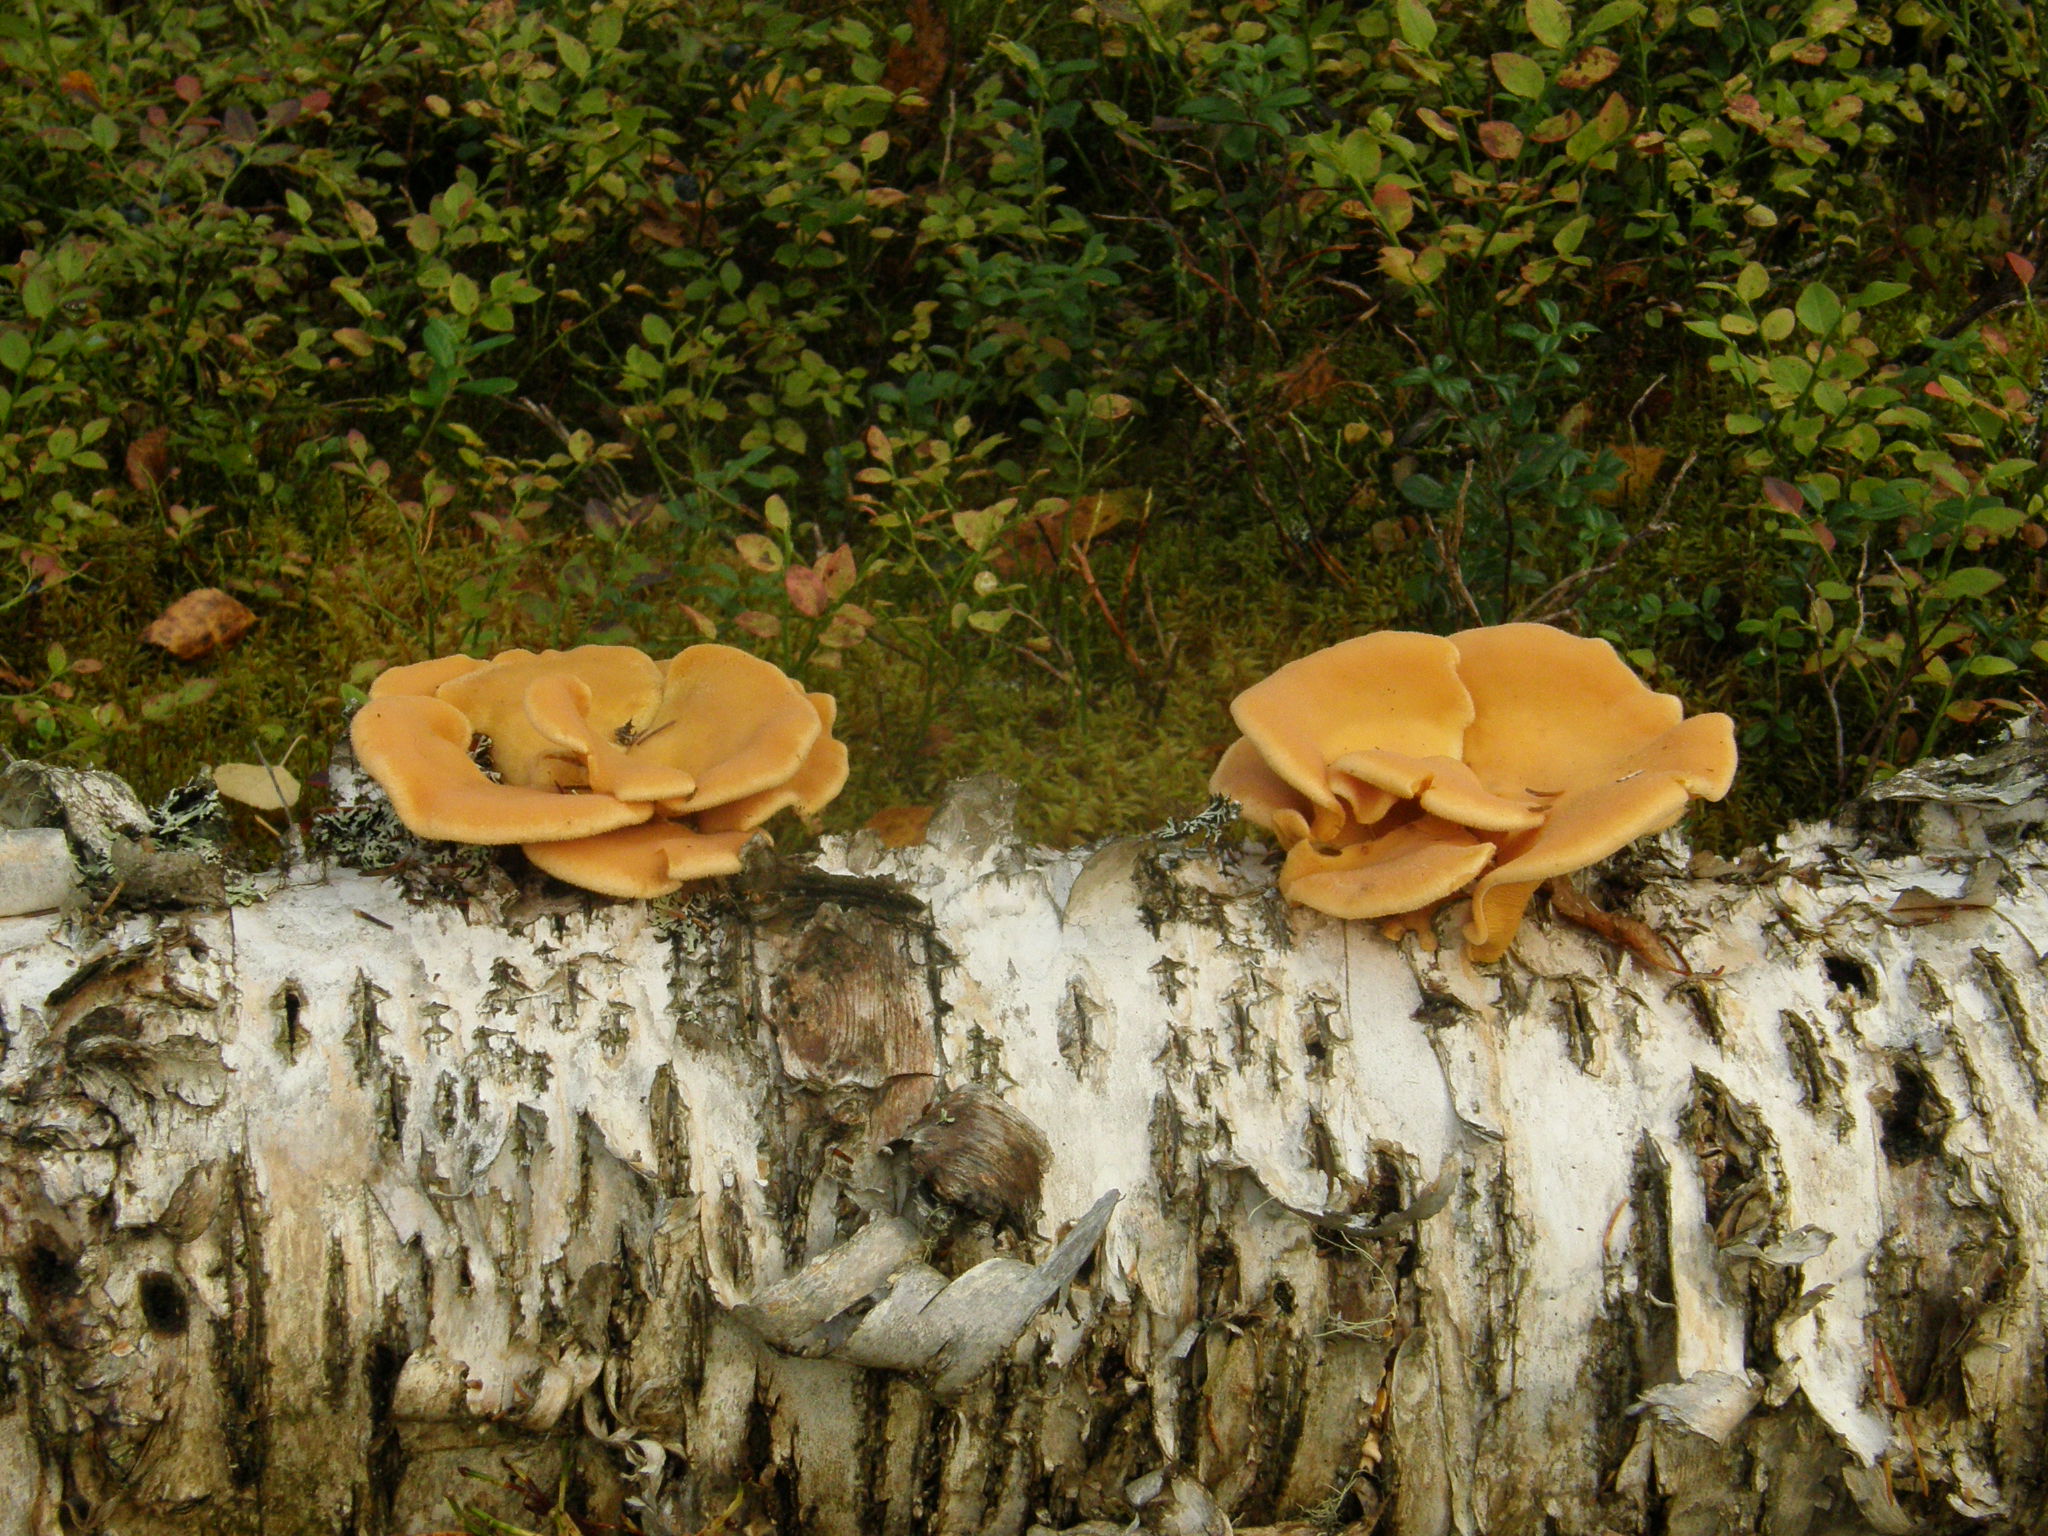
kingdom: Fungi
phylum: Basidiomycota
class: Agaricomycetes
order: Agaricales
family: Phyllotopsidaceae
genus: Phyllotopsis
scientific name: Phyllotopsis nidulans
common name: Orange mock oyster
